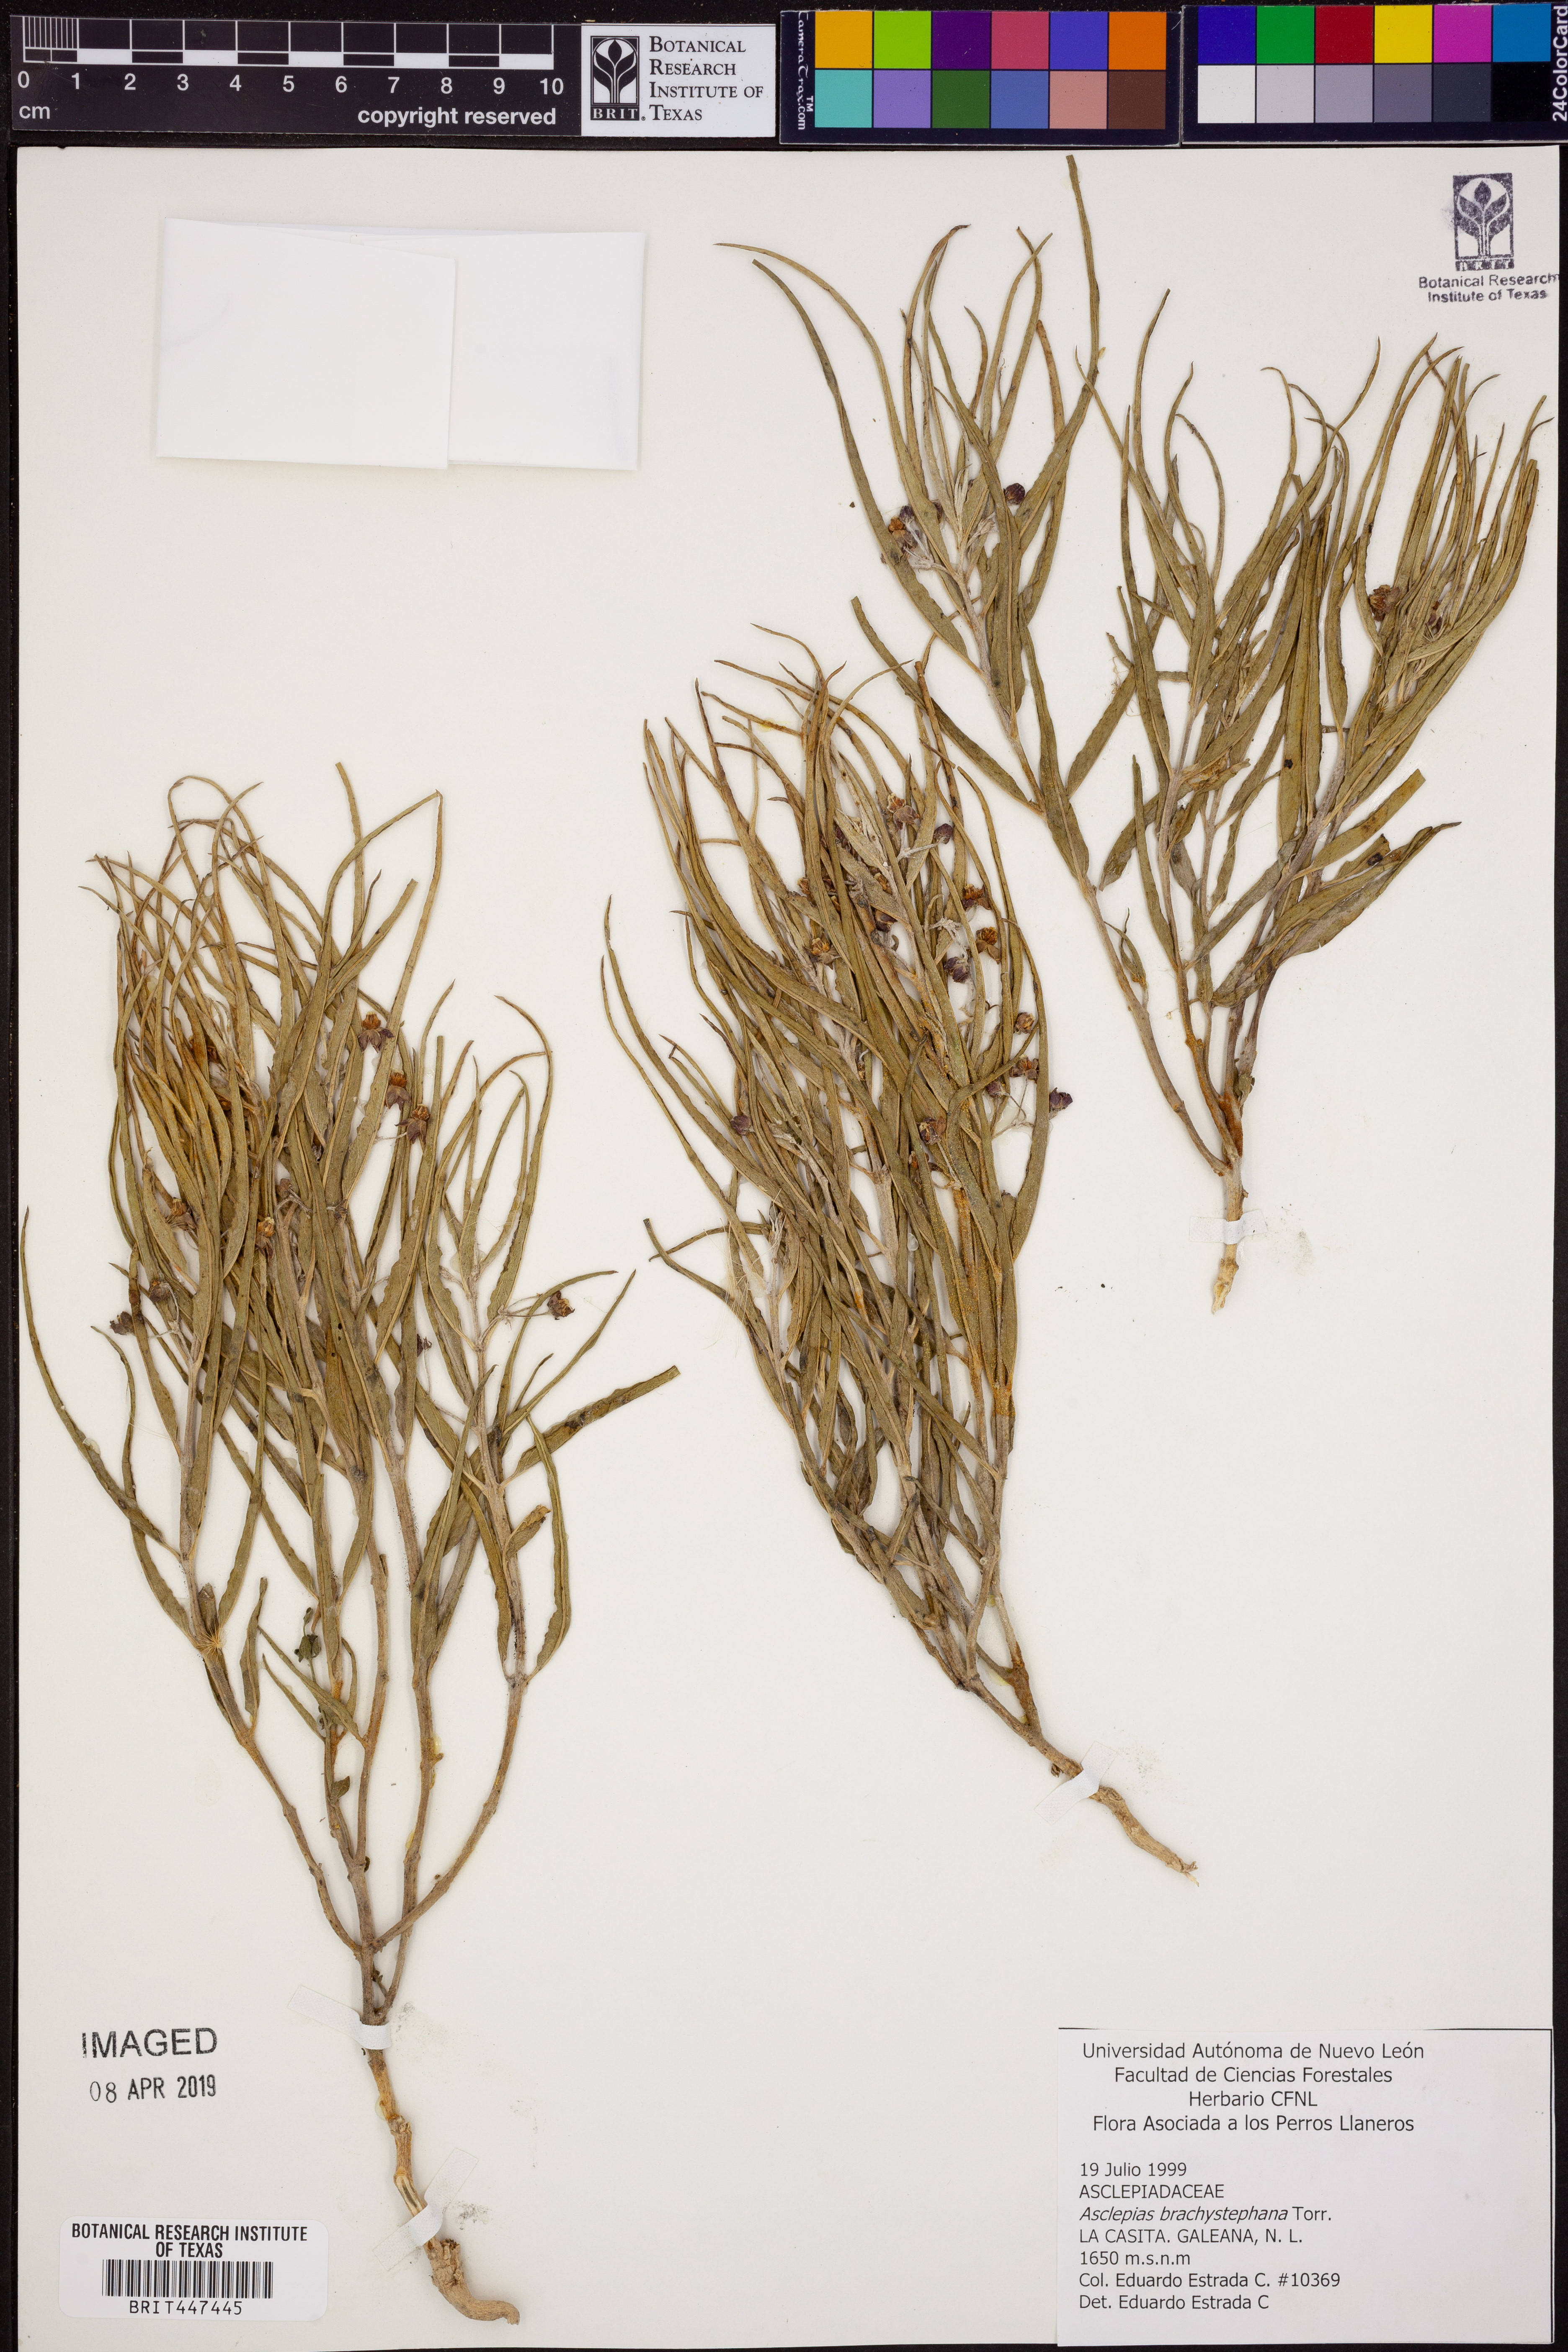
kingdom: Plantae
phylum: Tracheophyta
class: Magnoliopsida
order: Gentianales
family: Apocynaceae
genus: Asclepias
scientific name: Asclepias brachystephana
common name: Shortcrown milkweed
